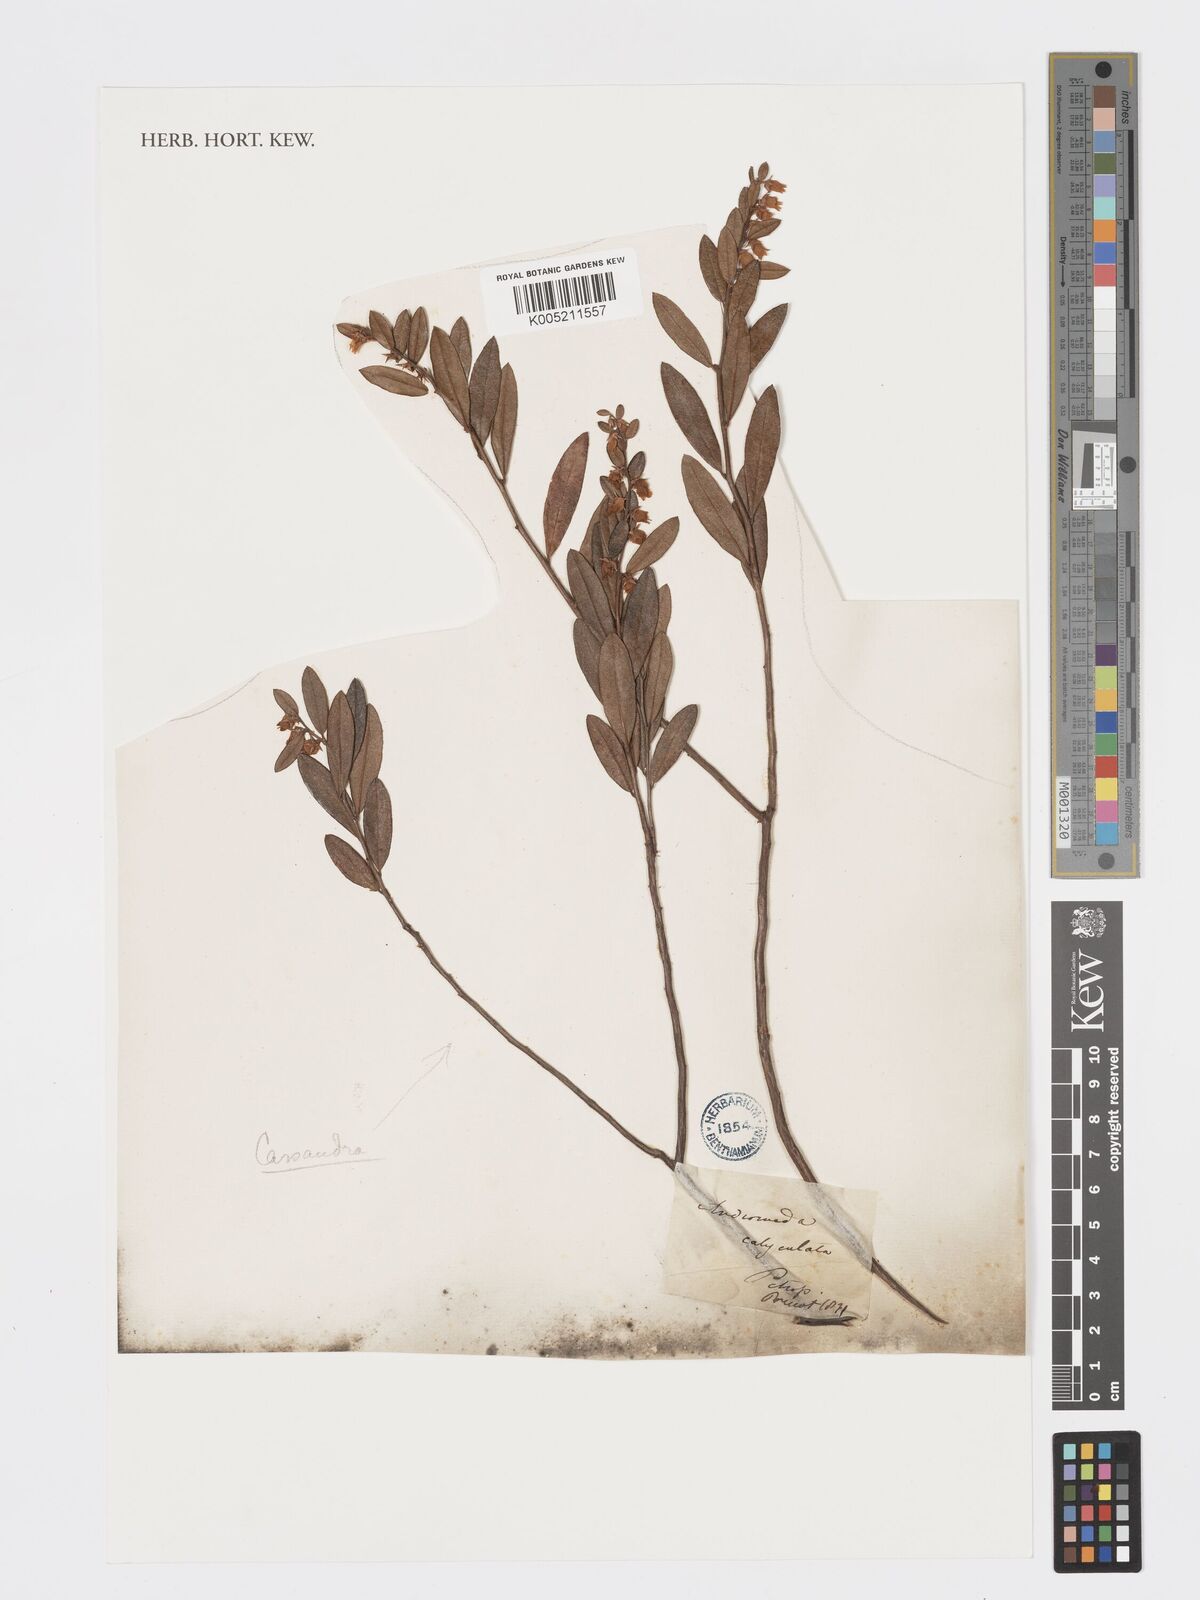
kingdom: Plantae
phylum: Tracheophyta
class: Magnoliopsida
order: Ericales
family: Ericaceae
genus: Chamaedaphne
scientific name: Chamaedaphne calyculata
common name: Leatherleaf
